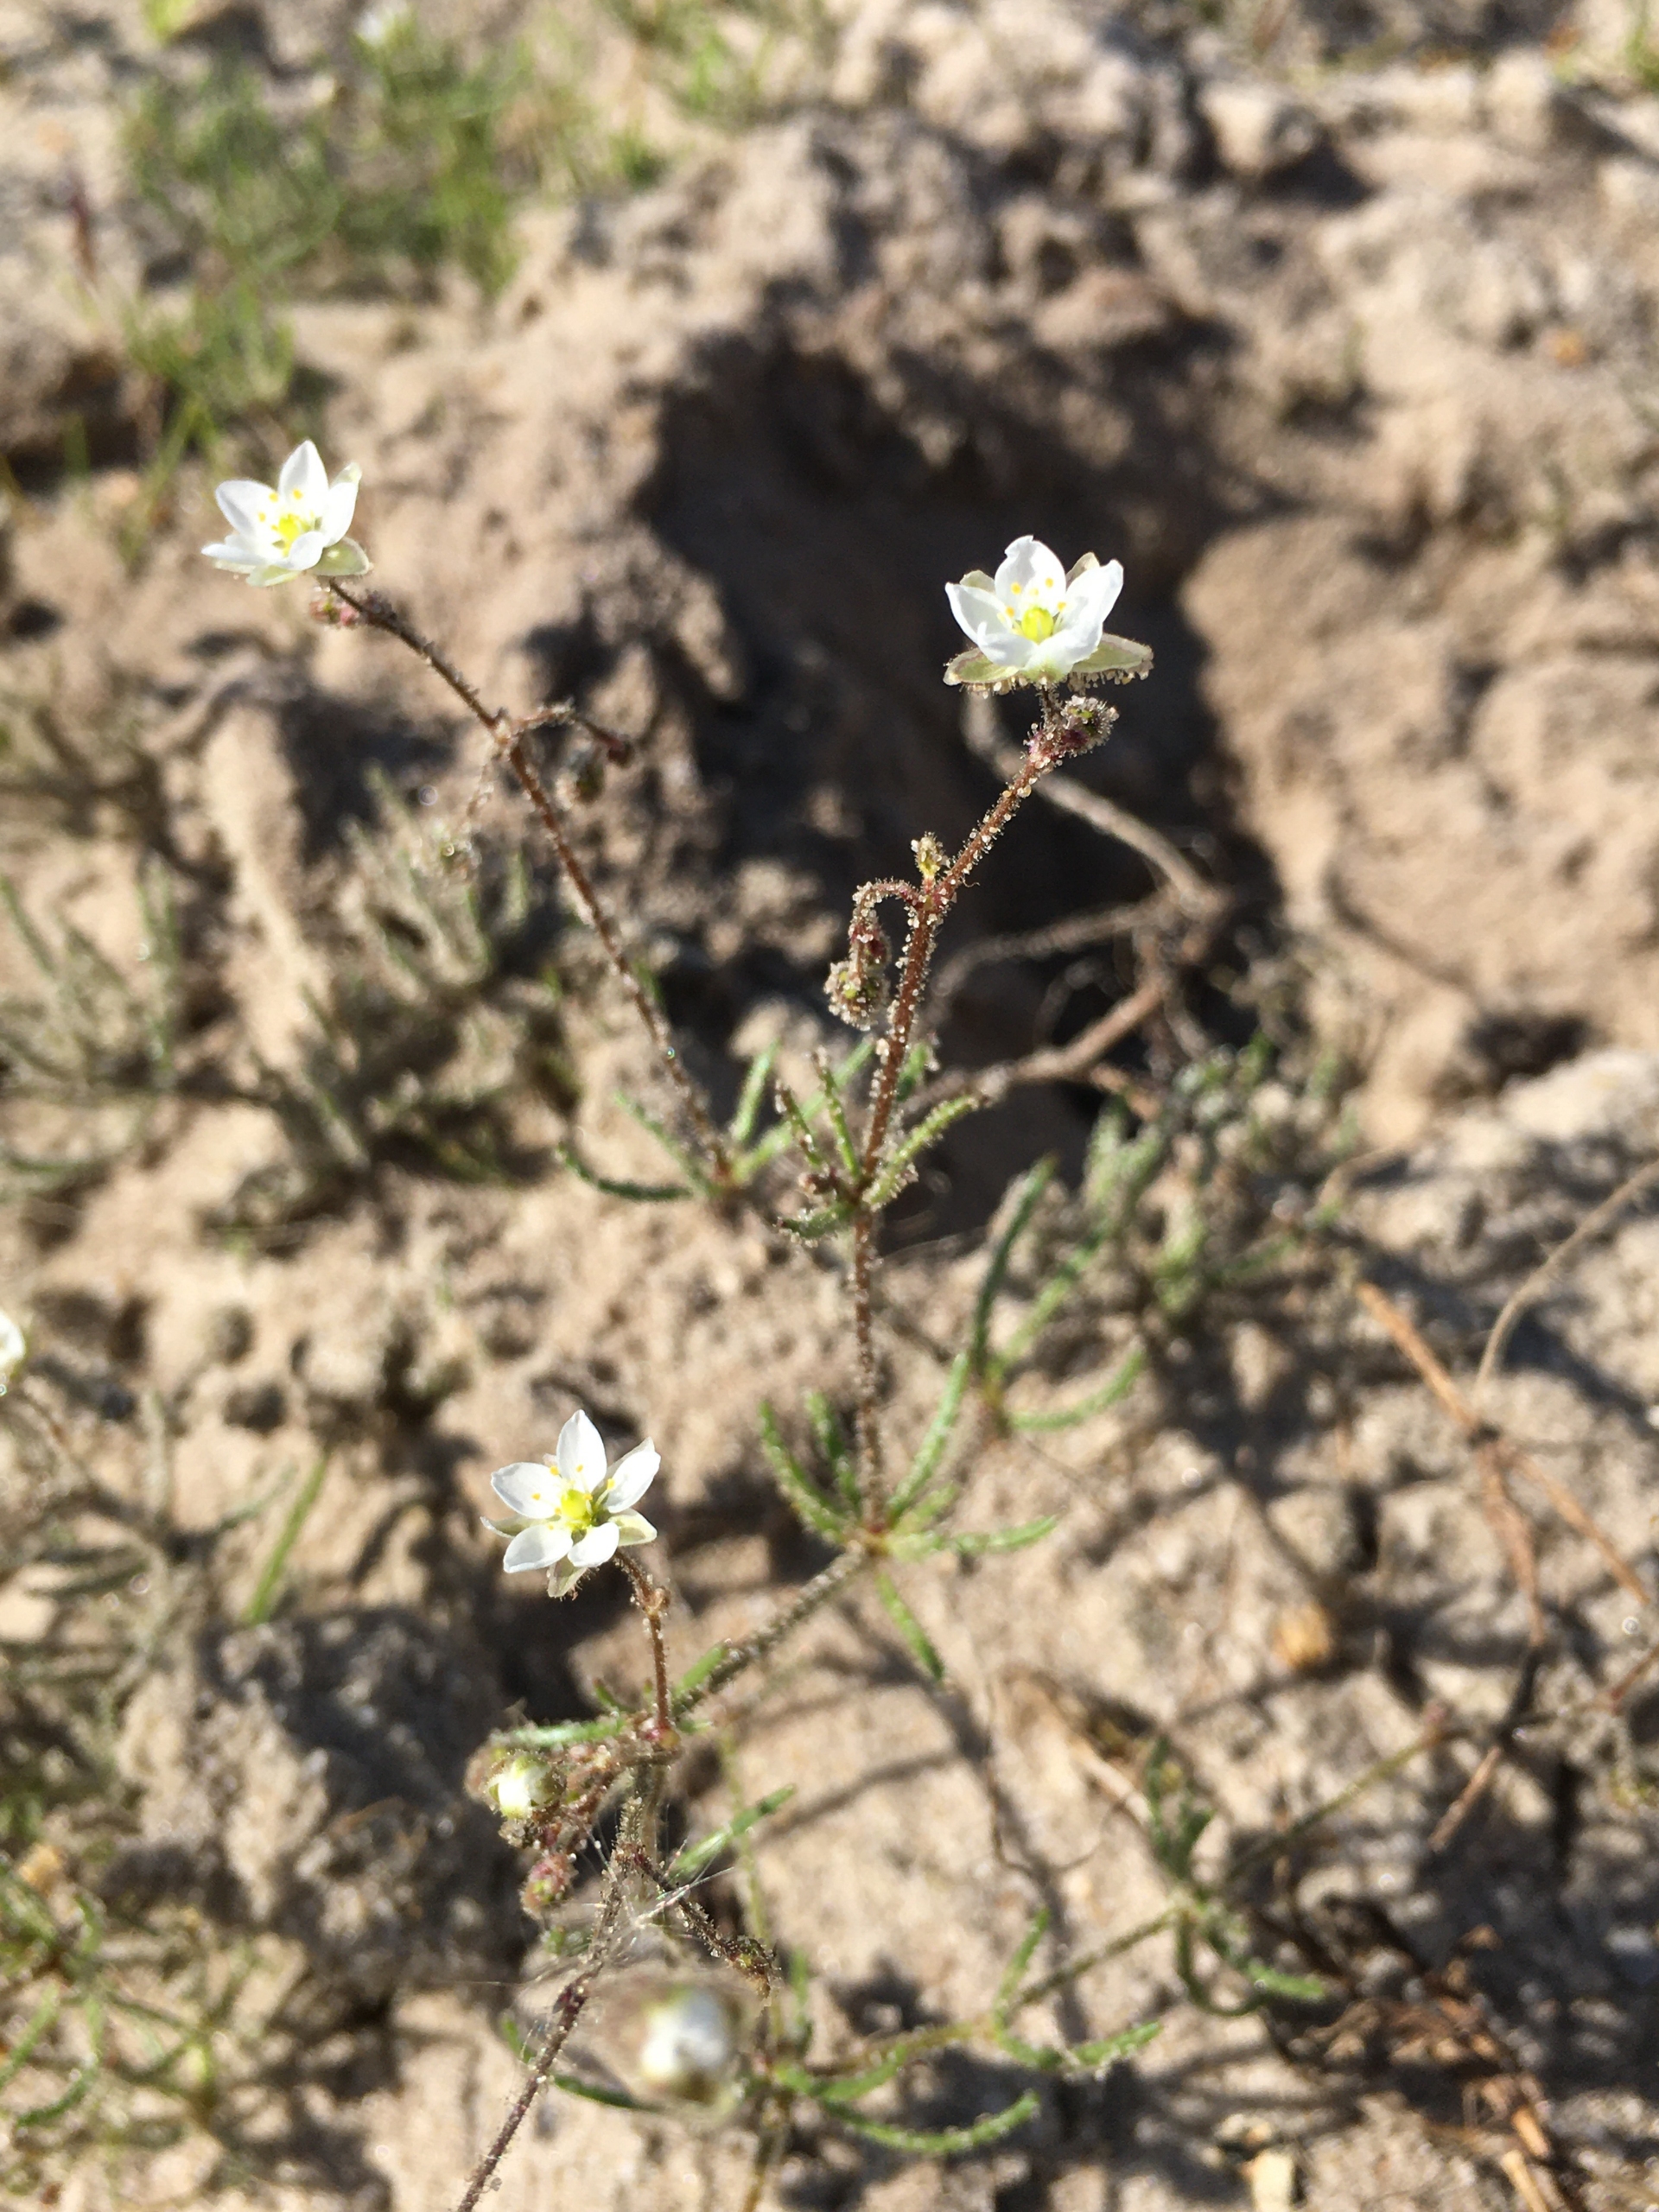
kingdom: Plantae
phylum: Tracheophyta
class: Magnoliopsida
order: Caryophyllales
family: Caryophyllaceae
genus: Spergula
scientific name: Spergula arvensis
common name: Almindelig spergel (underart)
